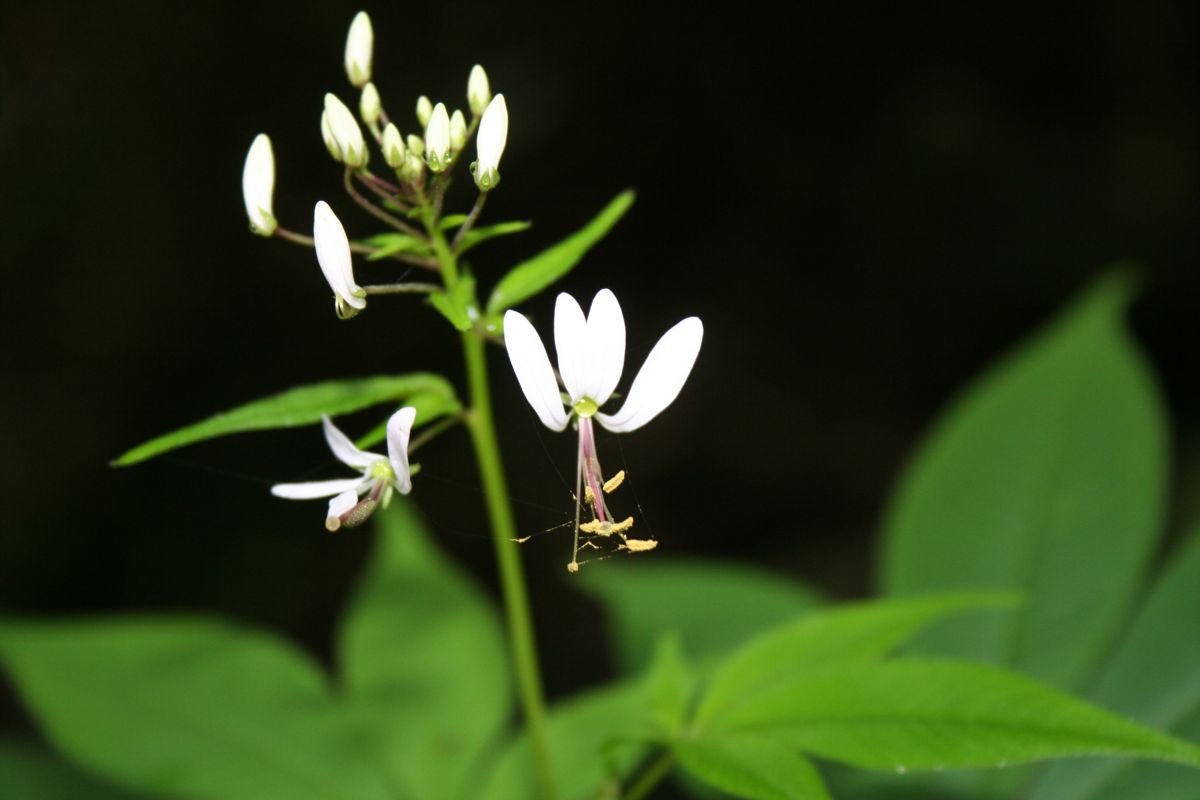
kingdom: Plantae
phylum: Tracheophyta
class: Magnoliopsida
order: Brassicales
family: Cleomaceae
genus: Cleome
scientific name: Cleome
